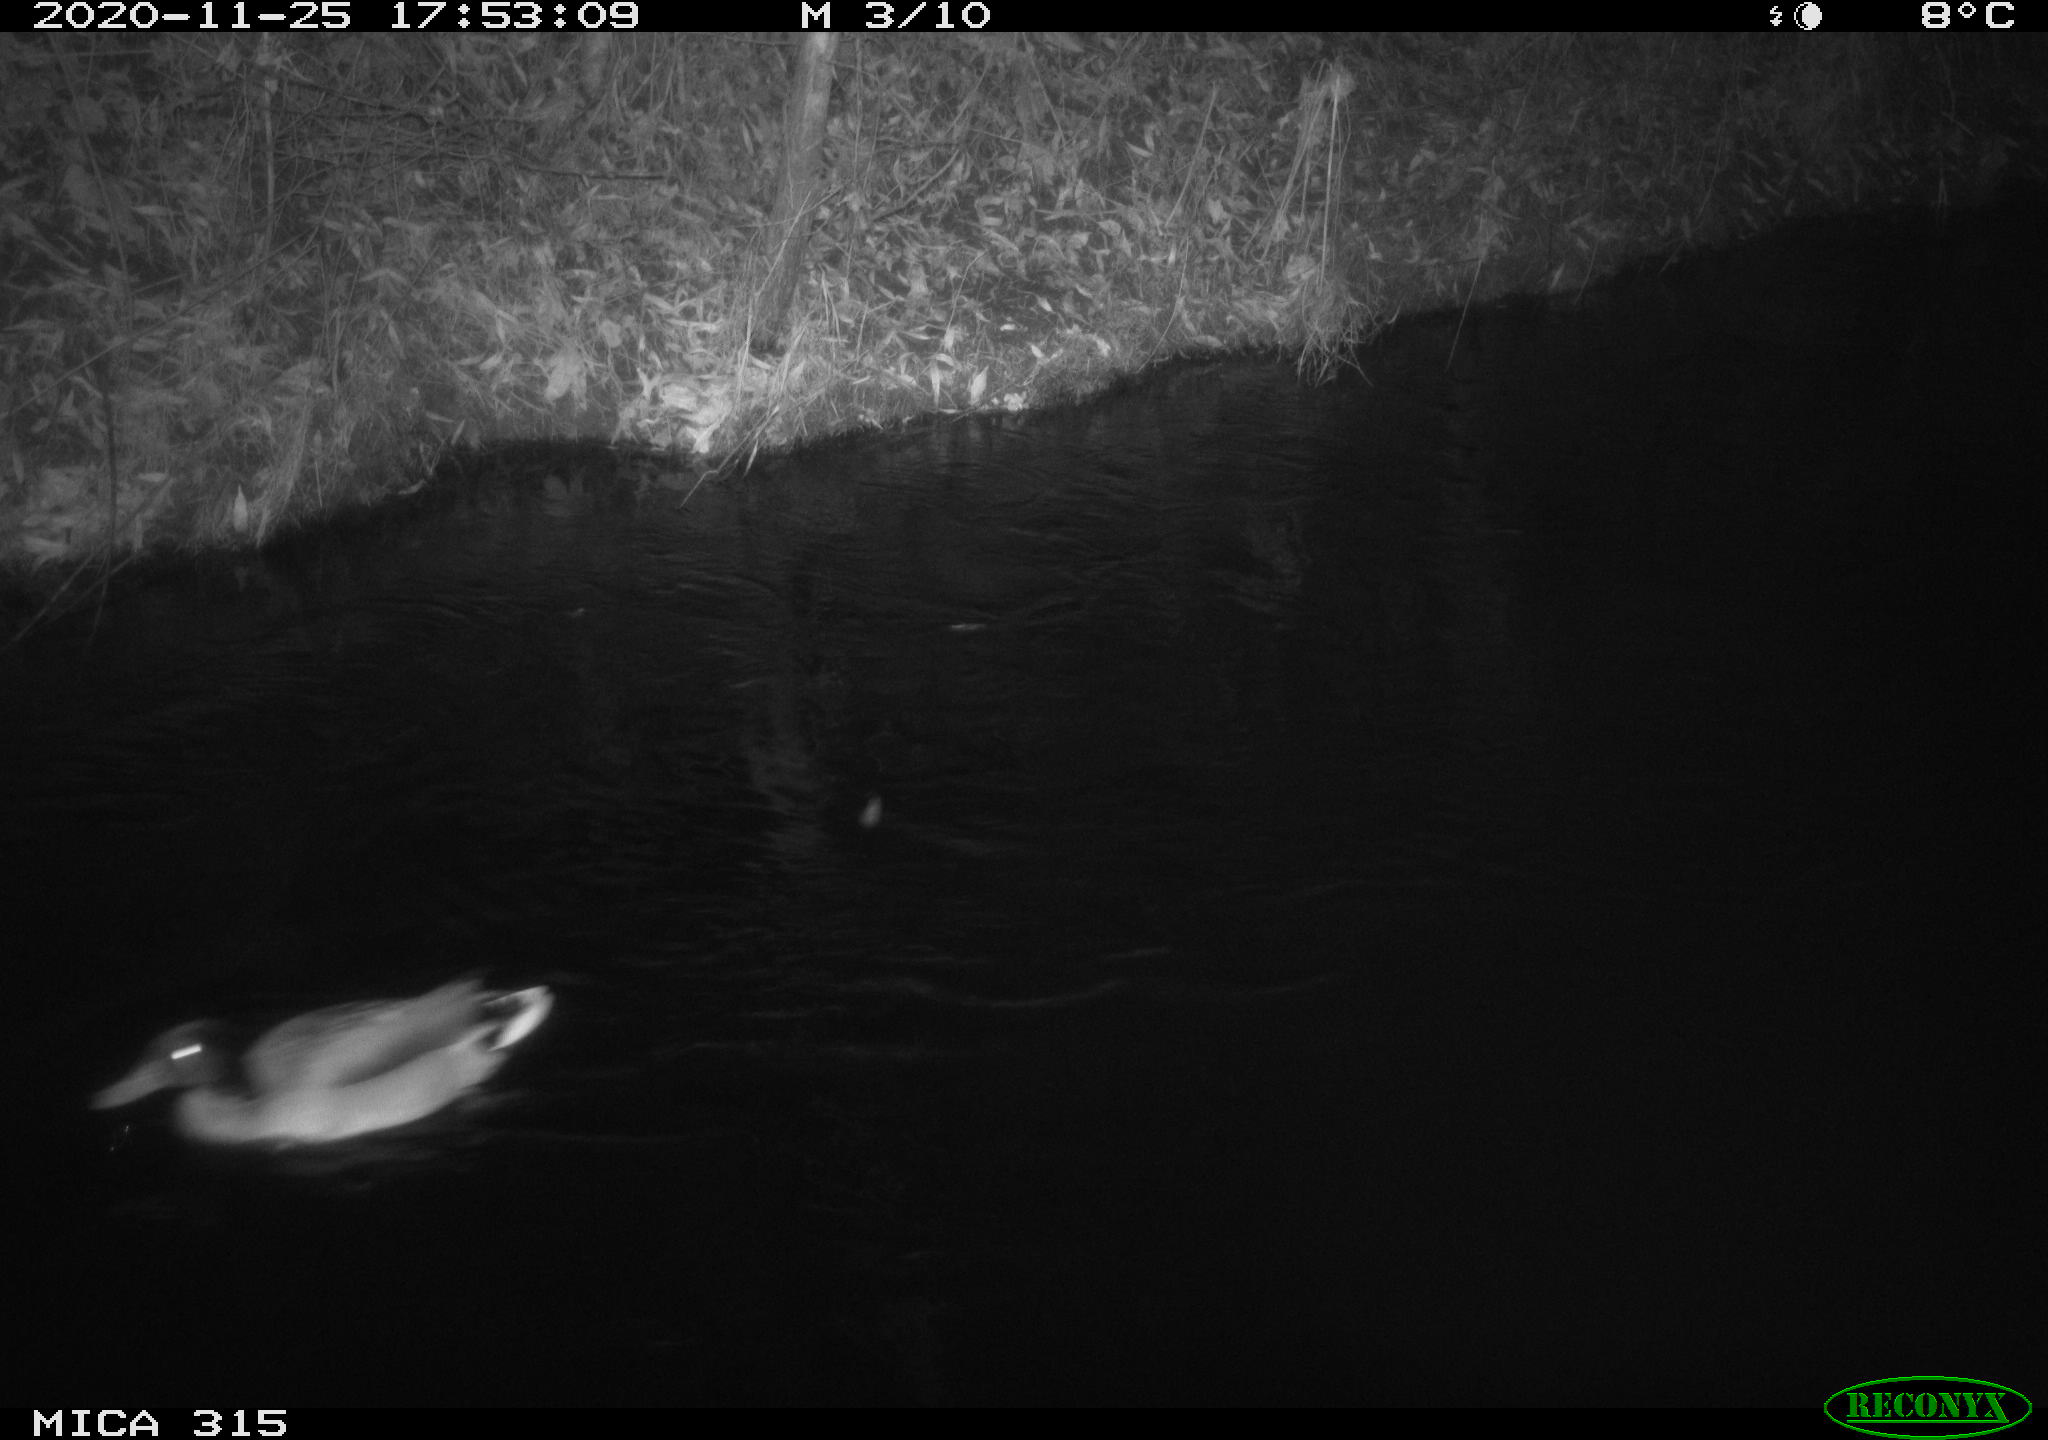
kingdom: Animalia
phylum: Chordata
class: Aves
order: Anseriformes
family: Anatidae
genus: Anas
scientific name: Anas platyrhynchos
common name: Mallard
